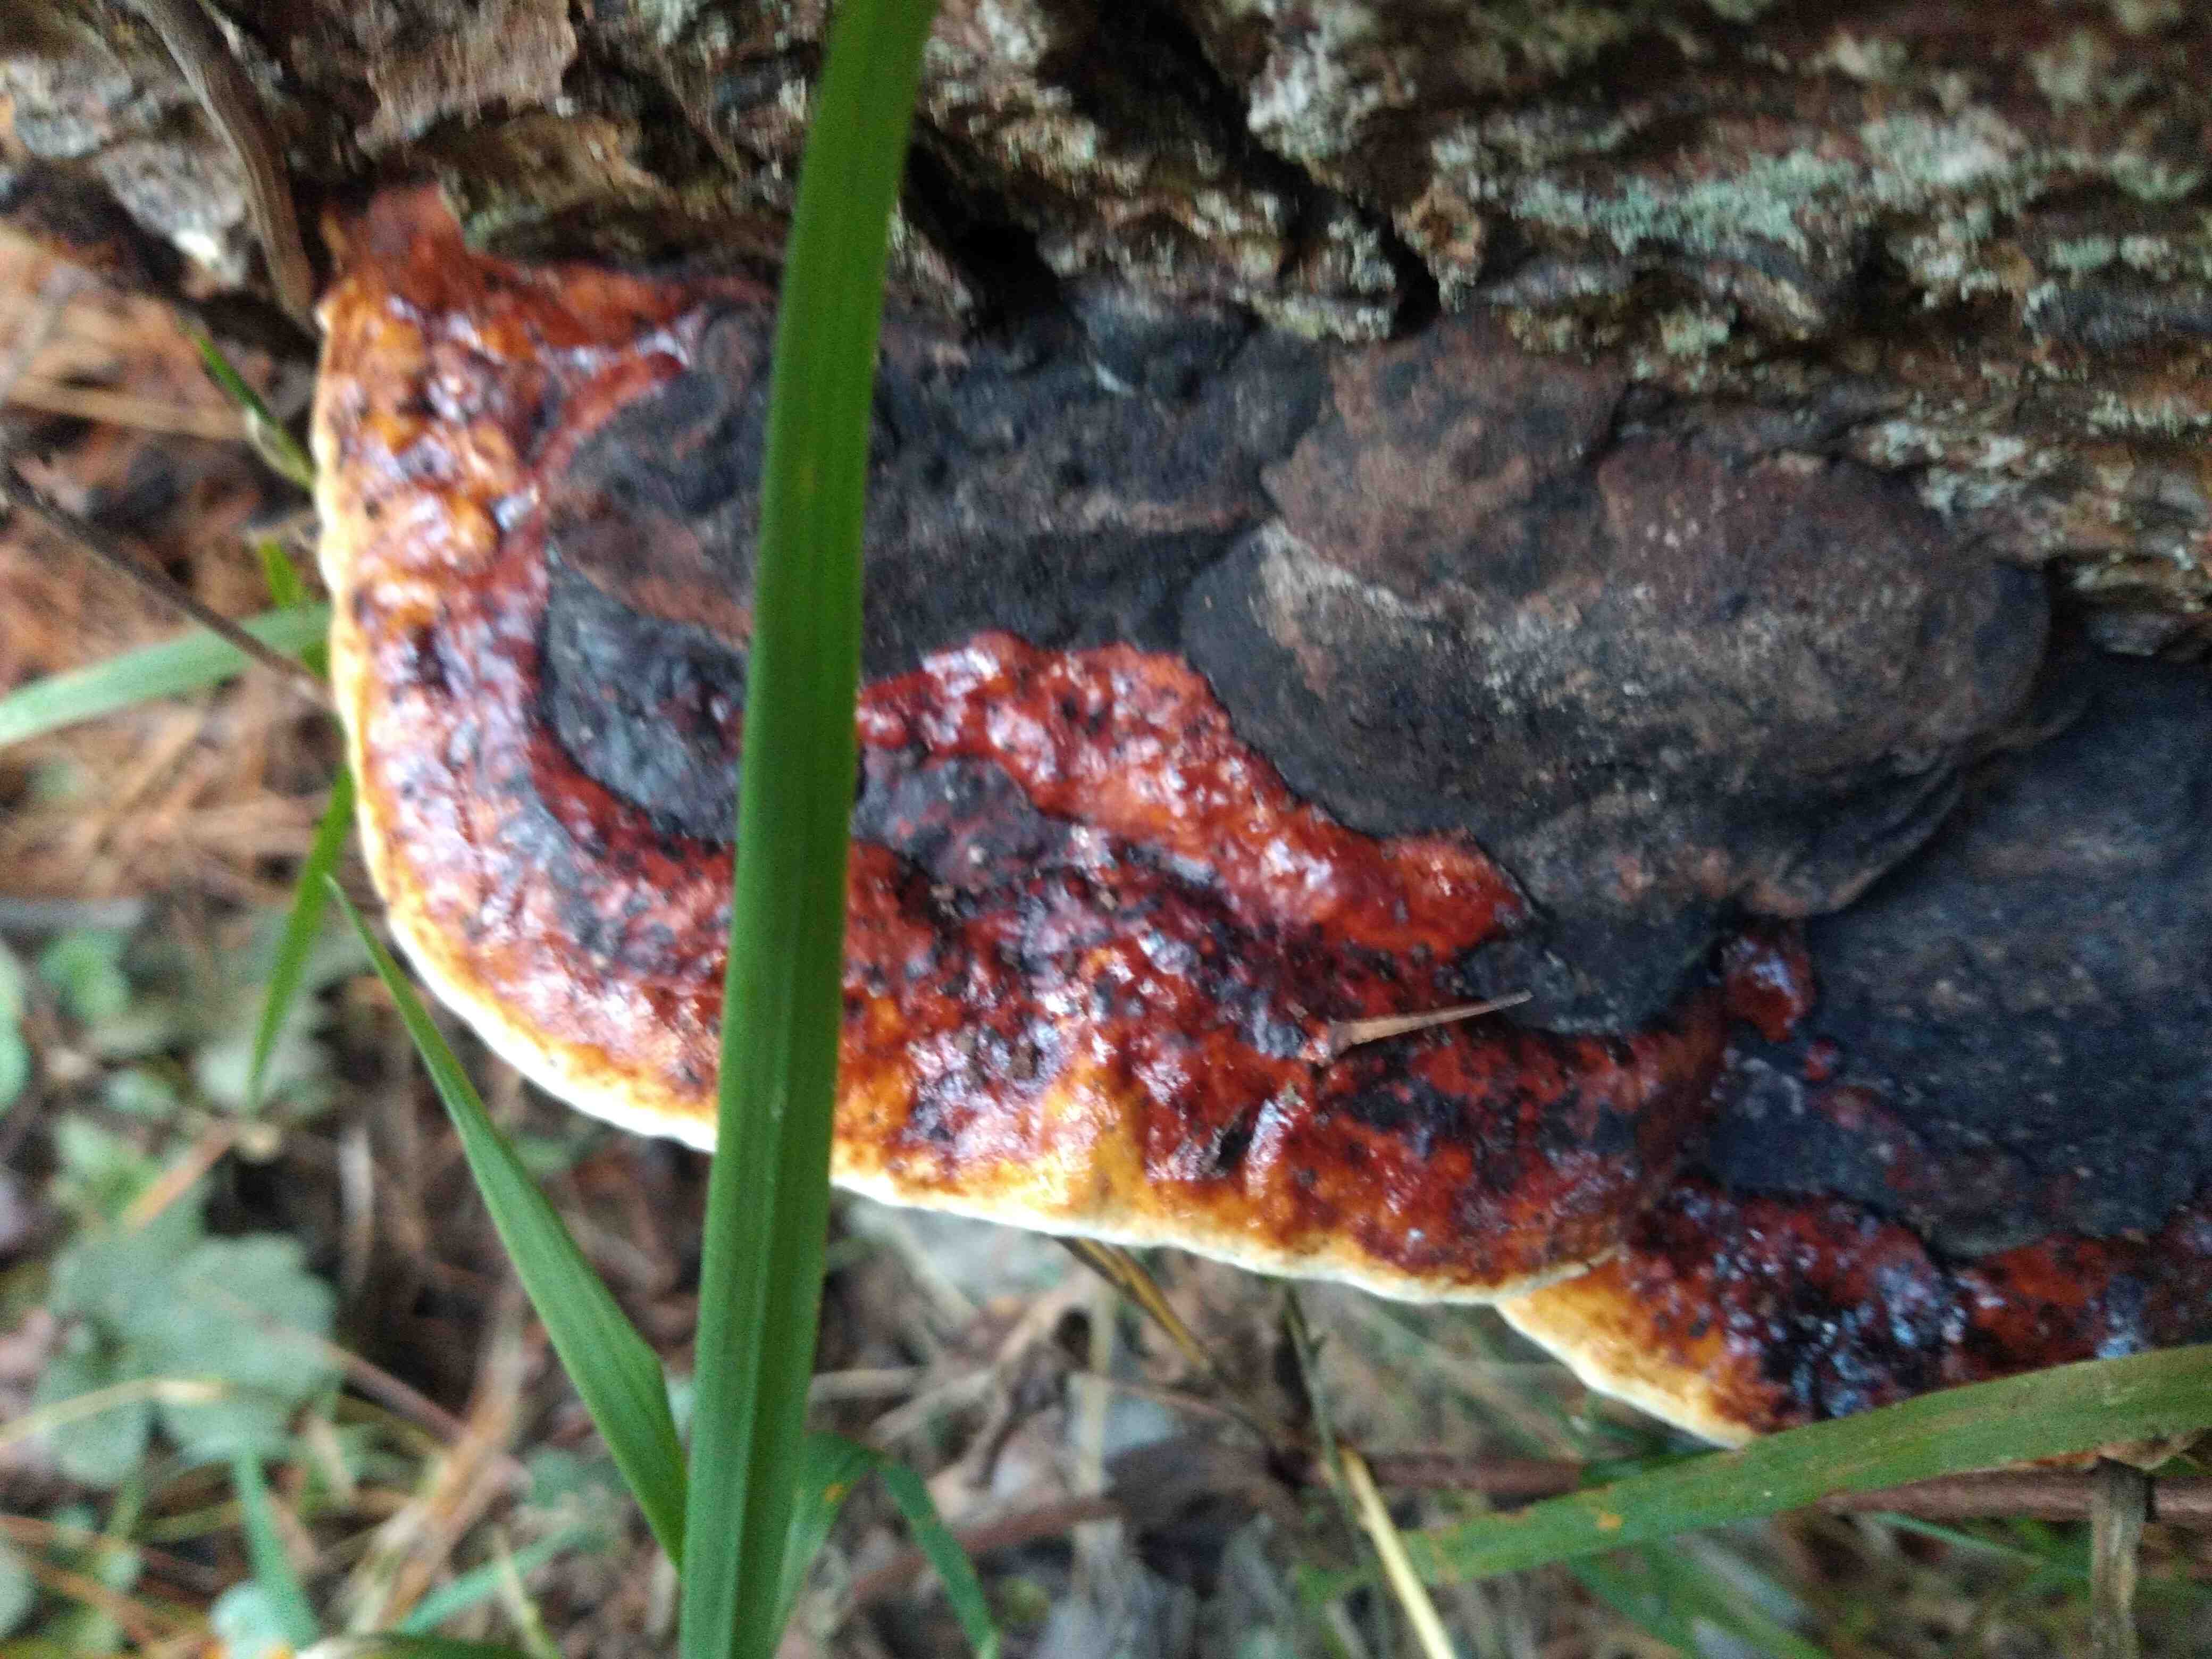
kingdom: Fungi
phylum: Basidiomycota
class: Agaricomycetes
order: Polyporales
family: Fomitopsidaceae
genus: Fomitopsis
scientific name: Fomitopsis pinicola
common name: randbæltet hovporesvamp
